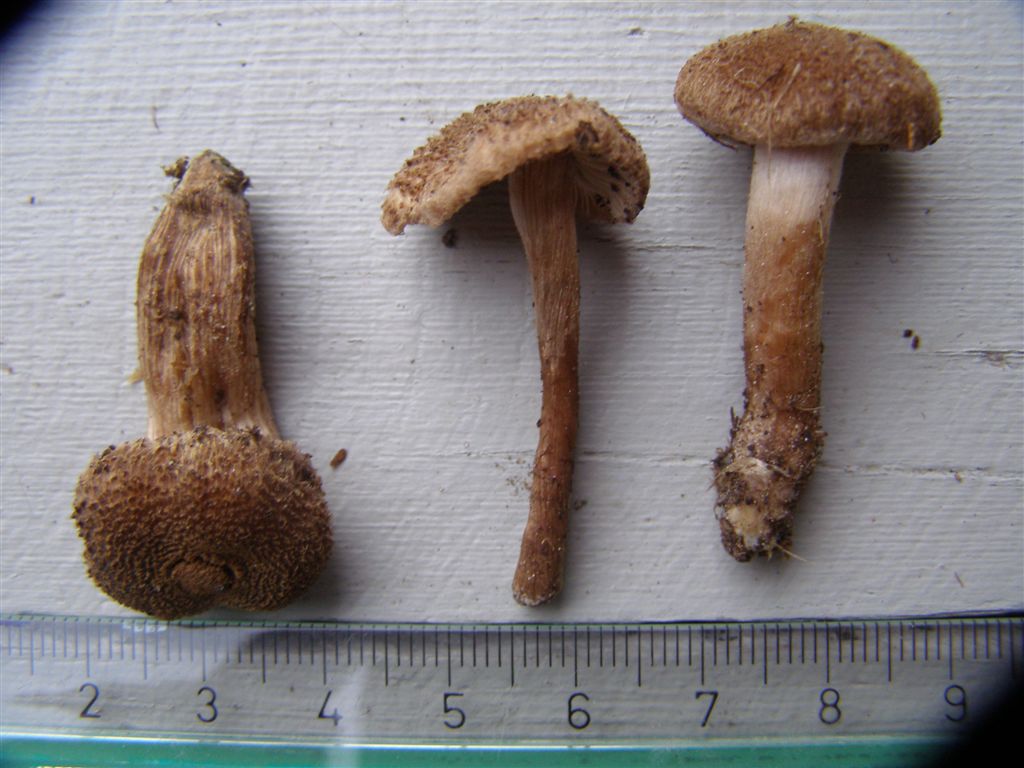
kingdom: Fungi
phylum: Basidiomycota
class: Agaricomycetes
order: Agaricales
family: Inocybaceae
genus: Inocybe
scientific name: Inocybe lacera
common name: laset trævlhat
